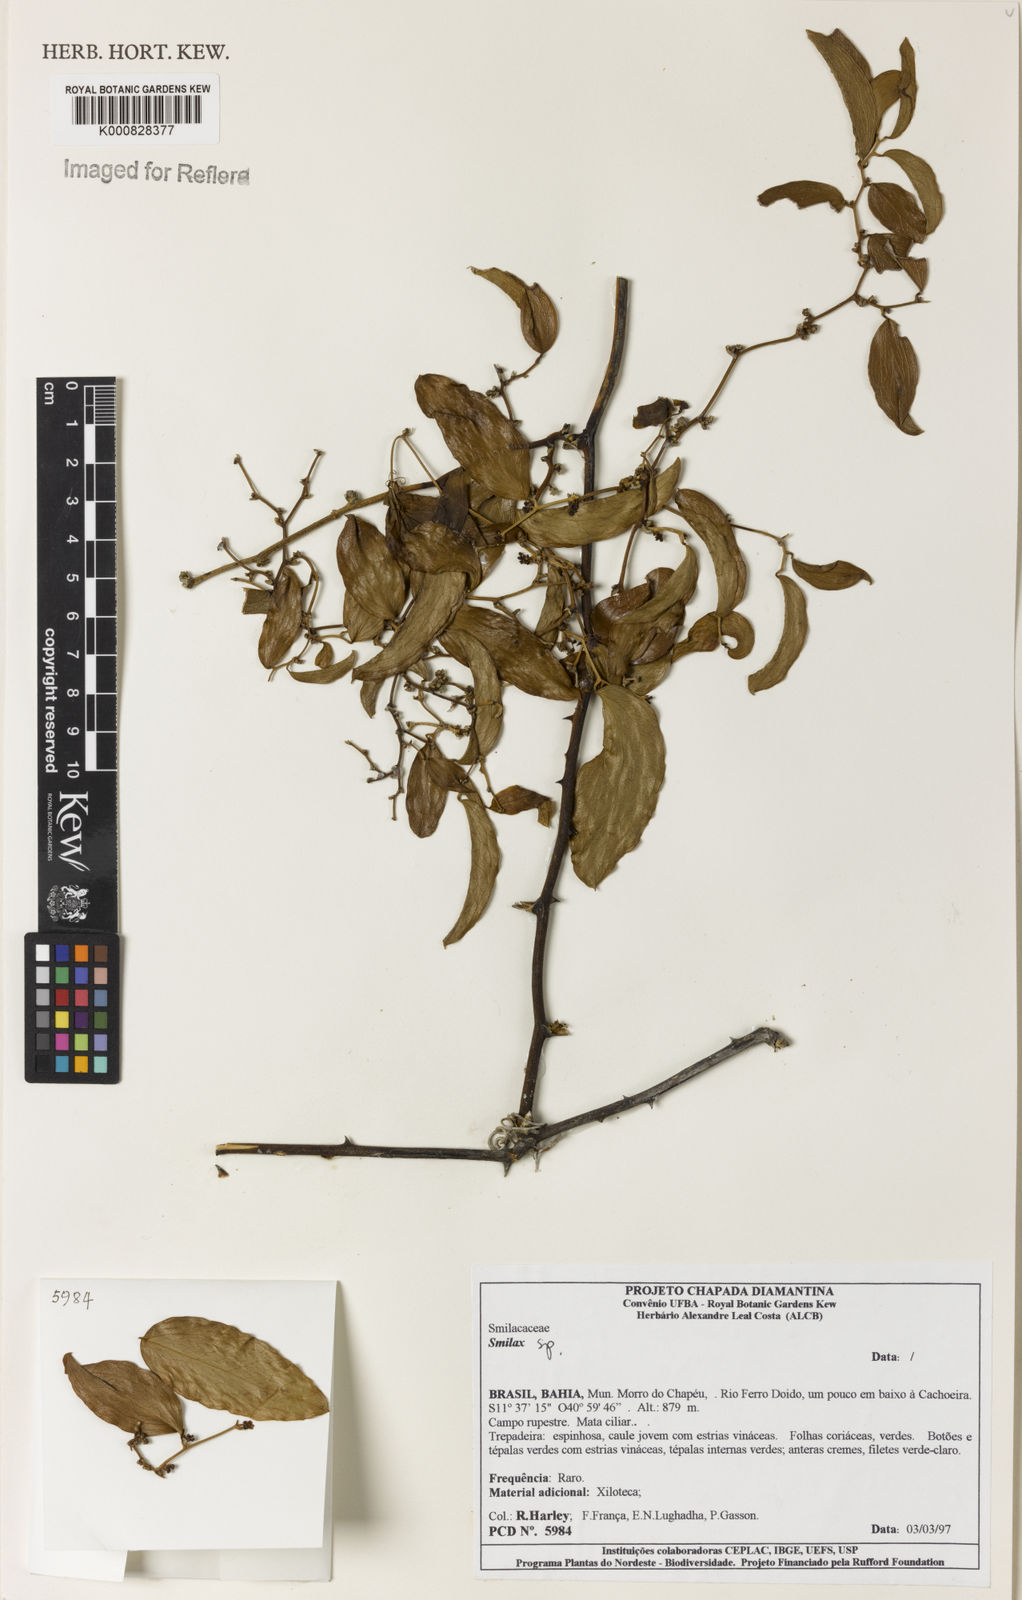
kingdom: Plantae
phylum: Tracheophyta
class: Liliopsida
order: Liliales
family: Smilacaceae
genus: Smilax
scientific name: Smilax
